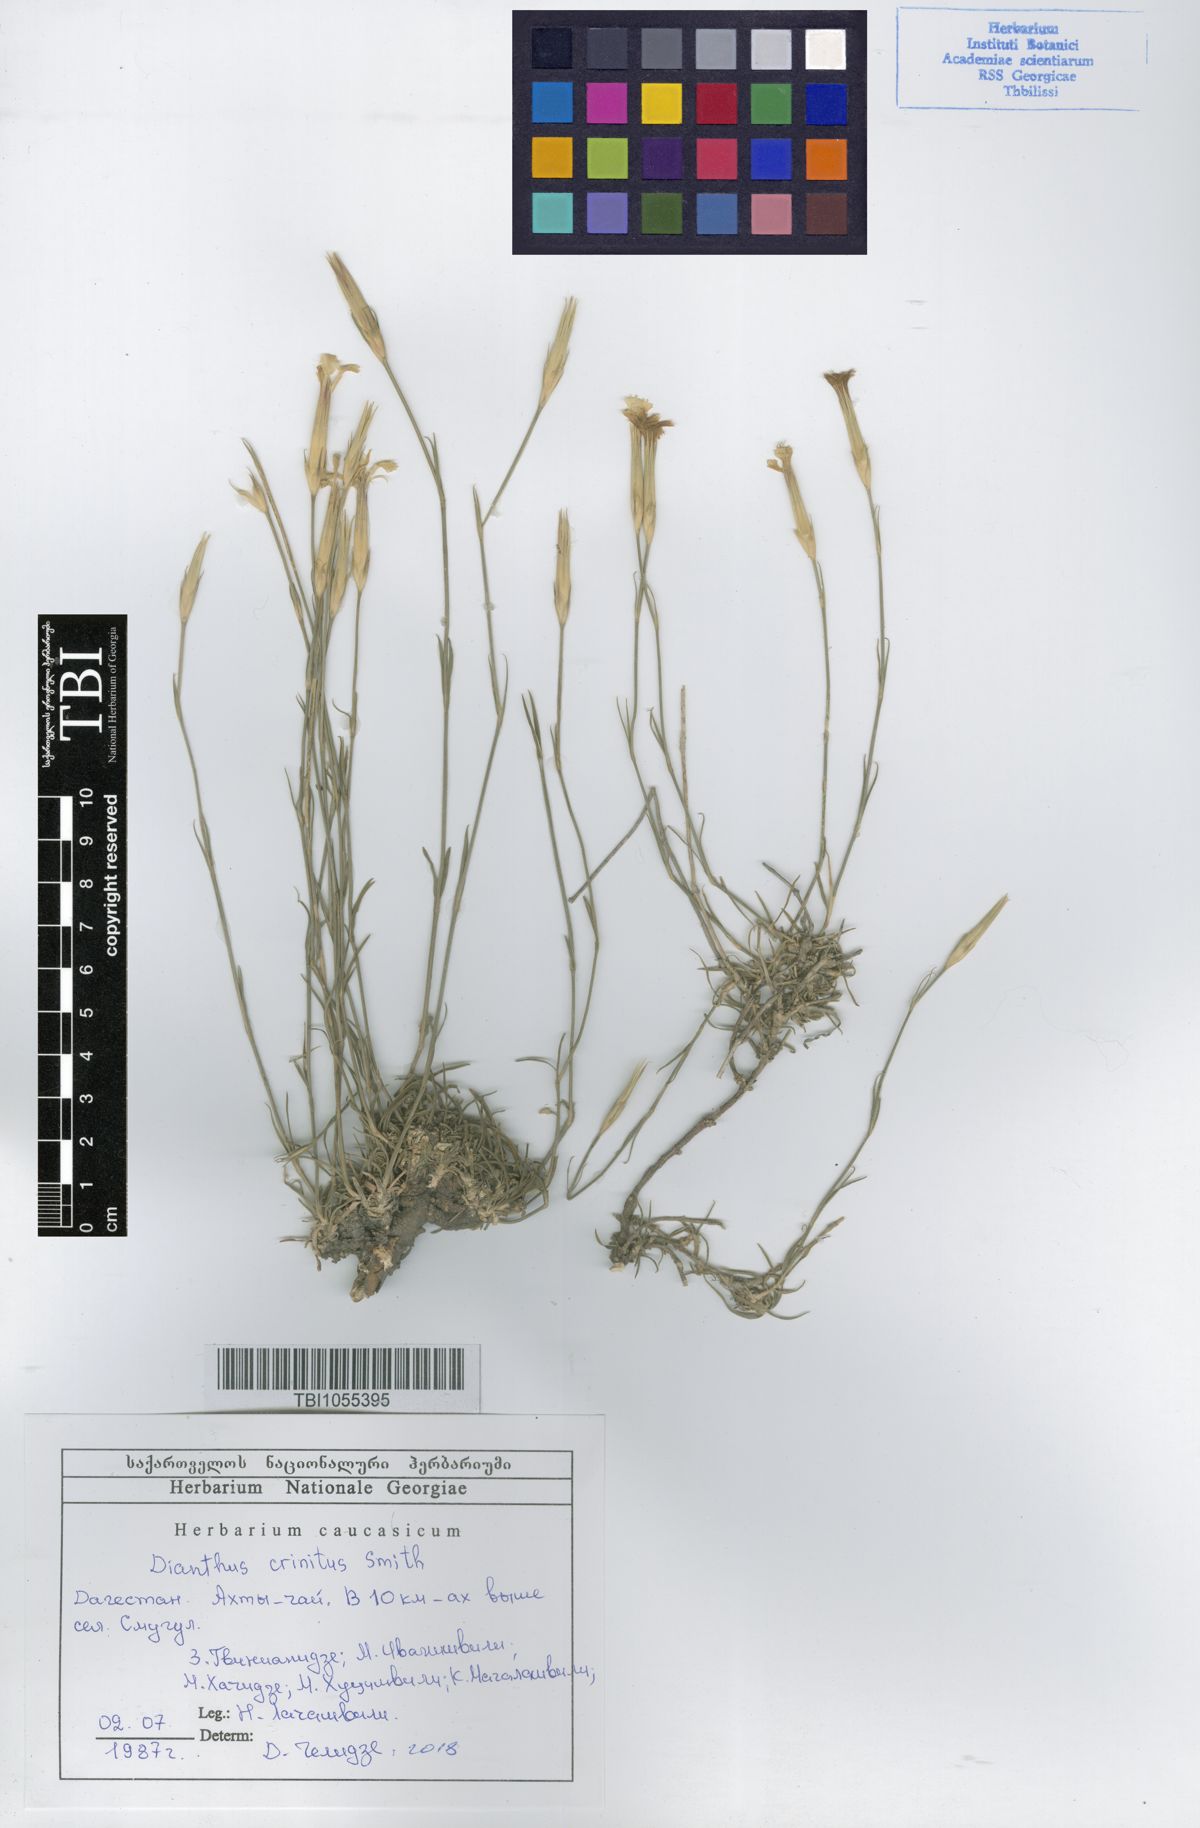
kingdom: Plantae
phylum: Tracheophyta
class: Magnoliopsida
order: Caryophyllales
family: Caryophyllaceae
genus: Dianthus
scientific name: Dianthus crinitus
